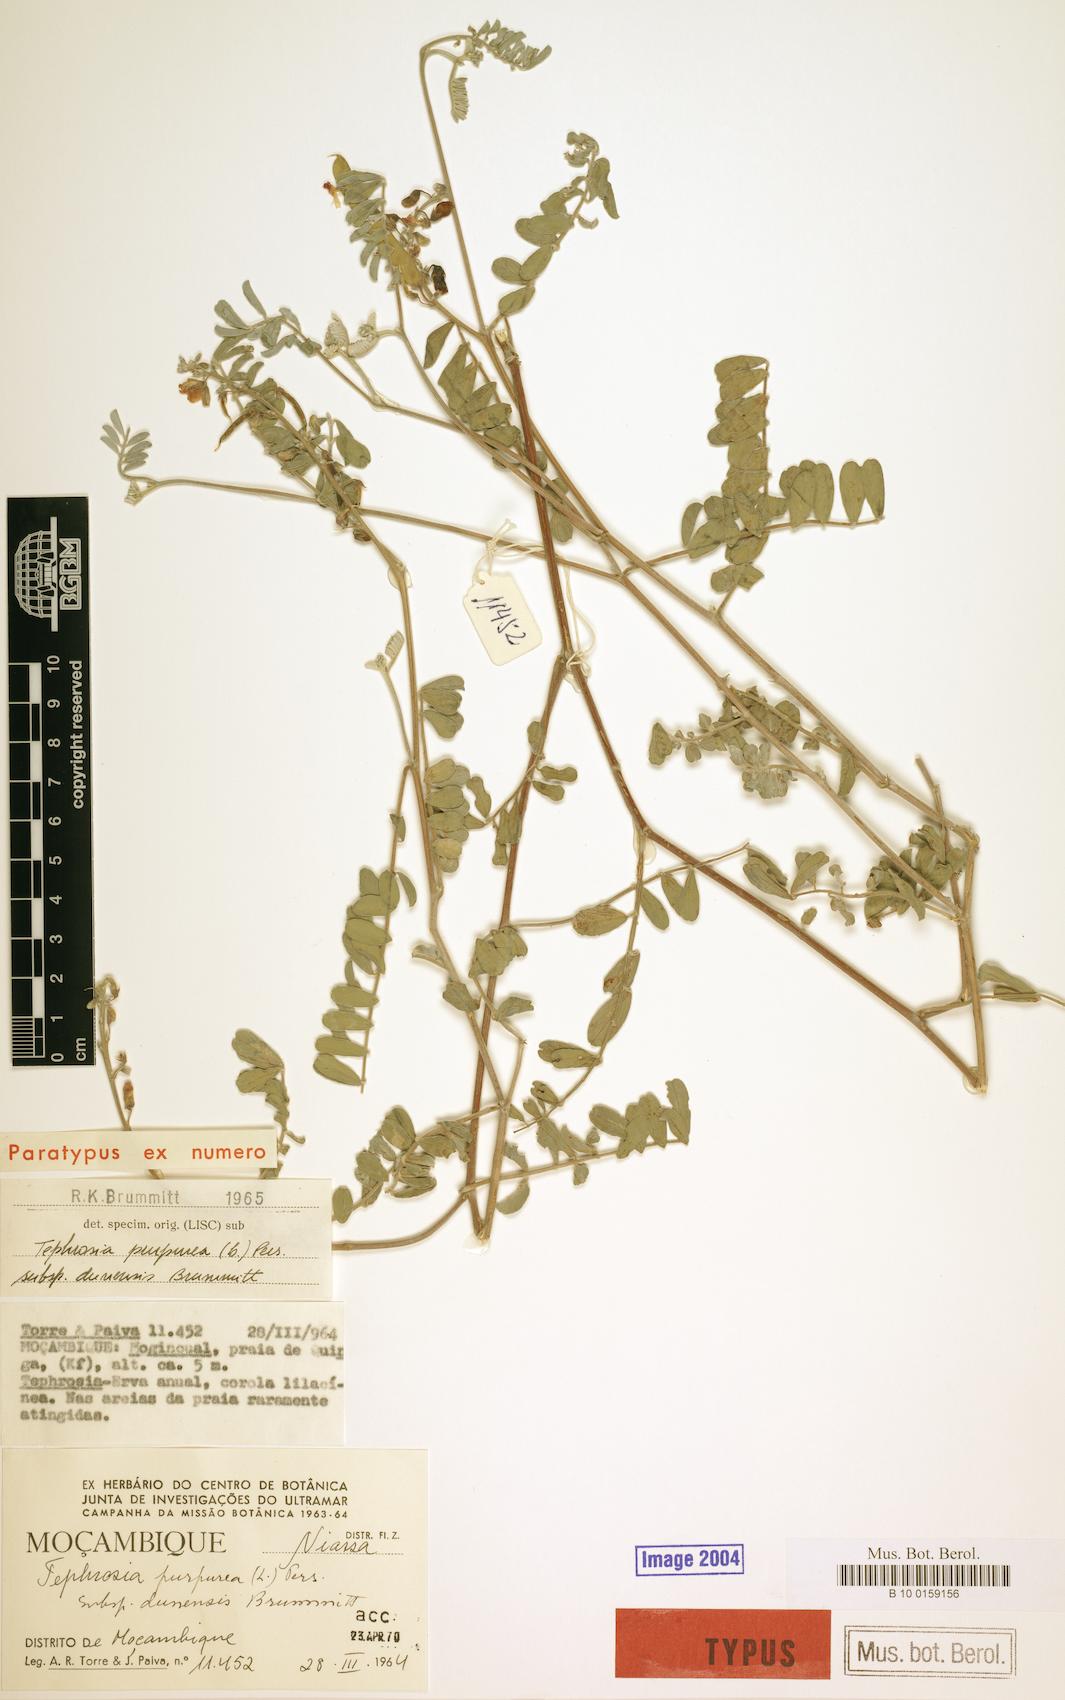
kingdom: Plantae
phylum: Tracheophyta
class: Magnoliopsida
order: Fabales
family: Fabaceae
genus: Tephrosia
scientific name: Tephrosia purpurea
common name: Fishpoison
